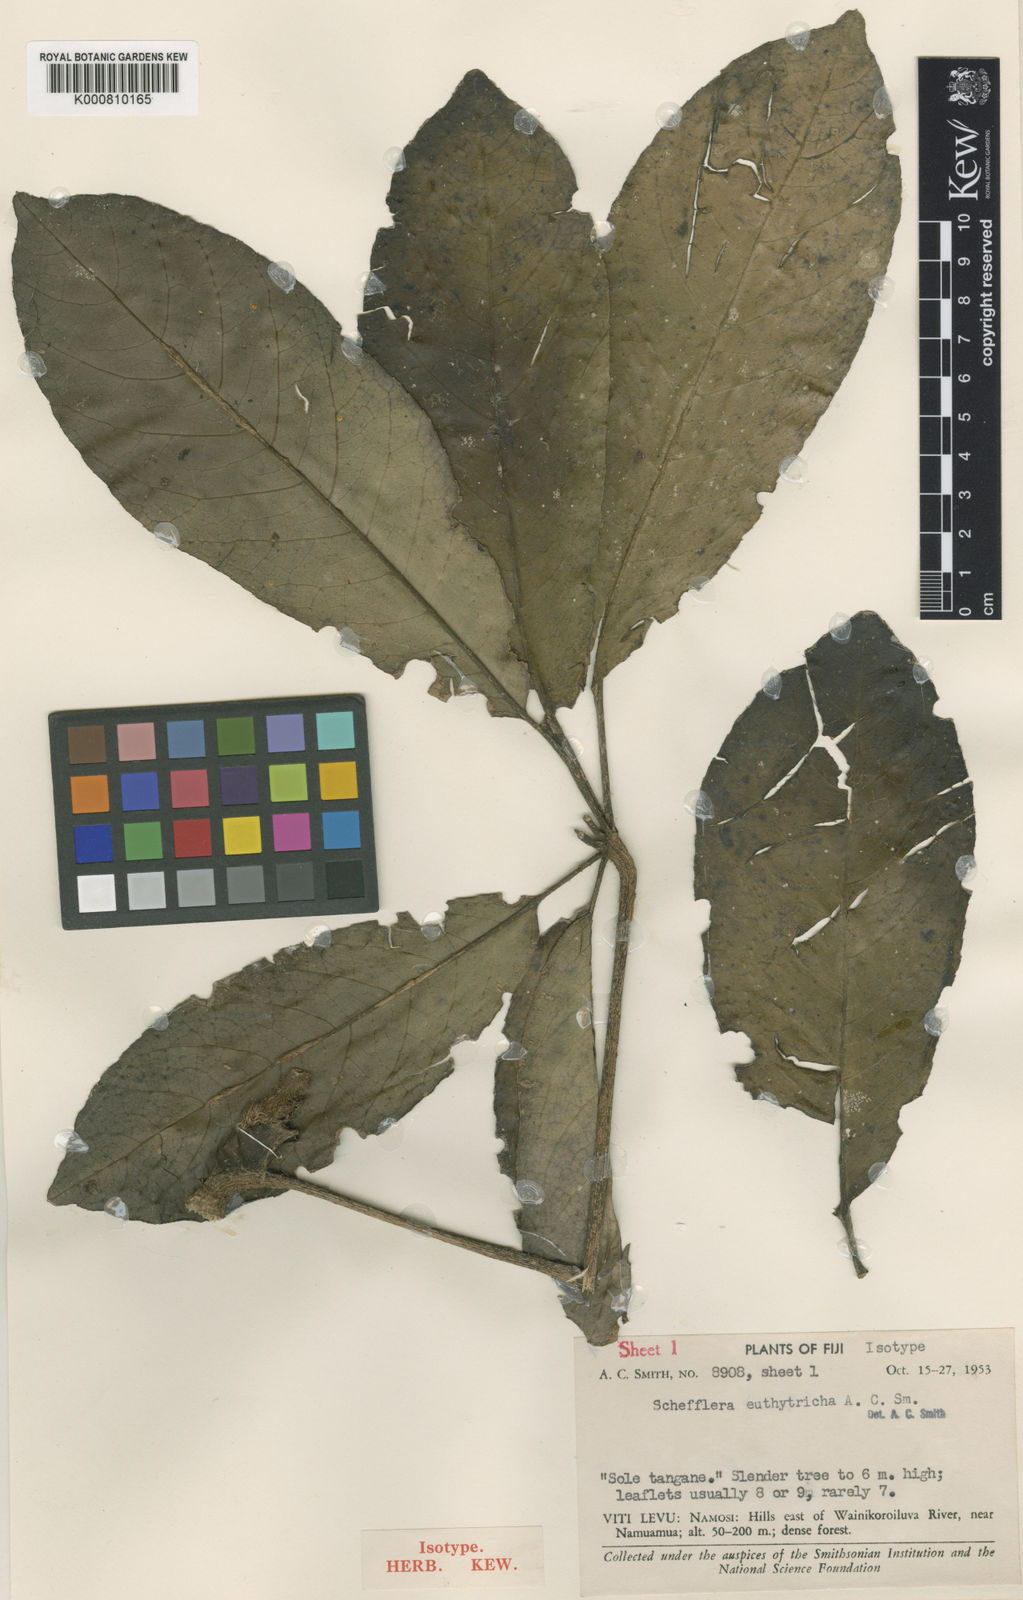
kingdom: Plantae
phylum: Tracheophyta
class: Magnoliopsida
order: Apiales
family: Araliaceae
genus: Schefflera
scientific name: Schefflera euthytricha
